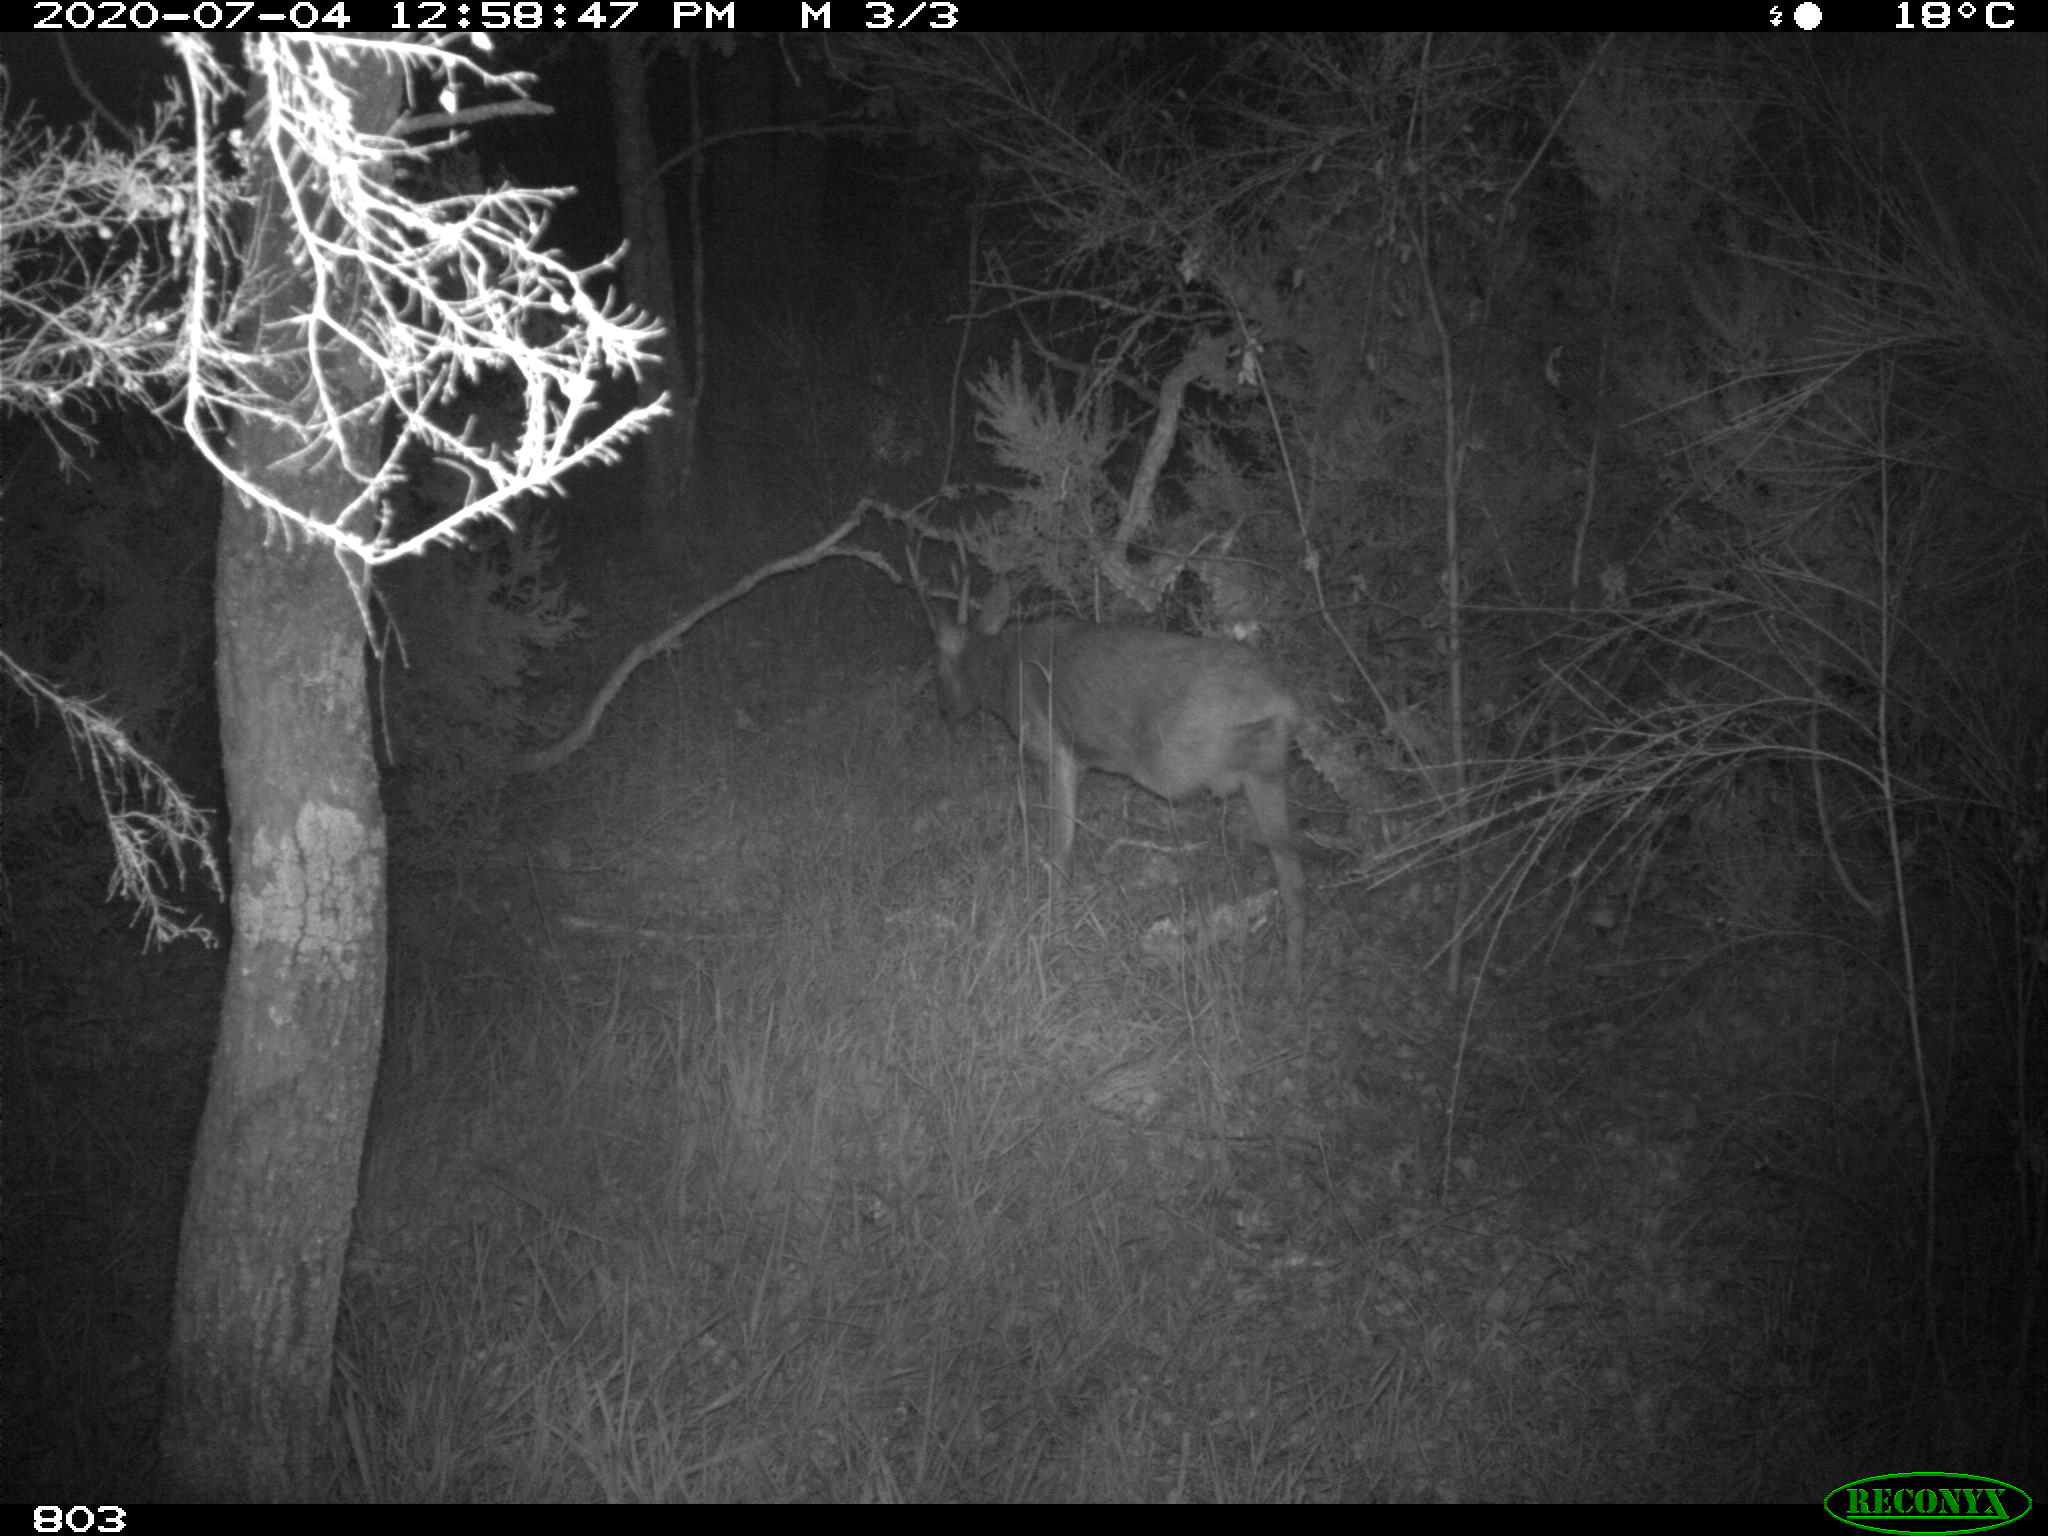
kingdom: Animalia
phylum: Chordata
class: Mammalia
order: Artiodactyla
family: Cervidae
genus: Capreolus
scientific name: Capreolus capreolus
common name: Western roe deer
